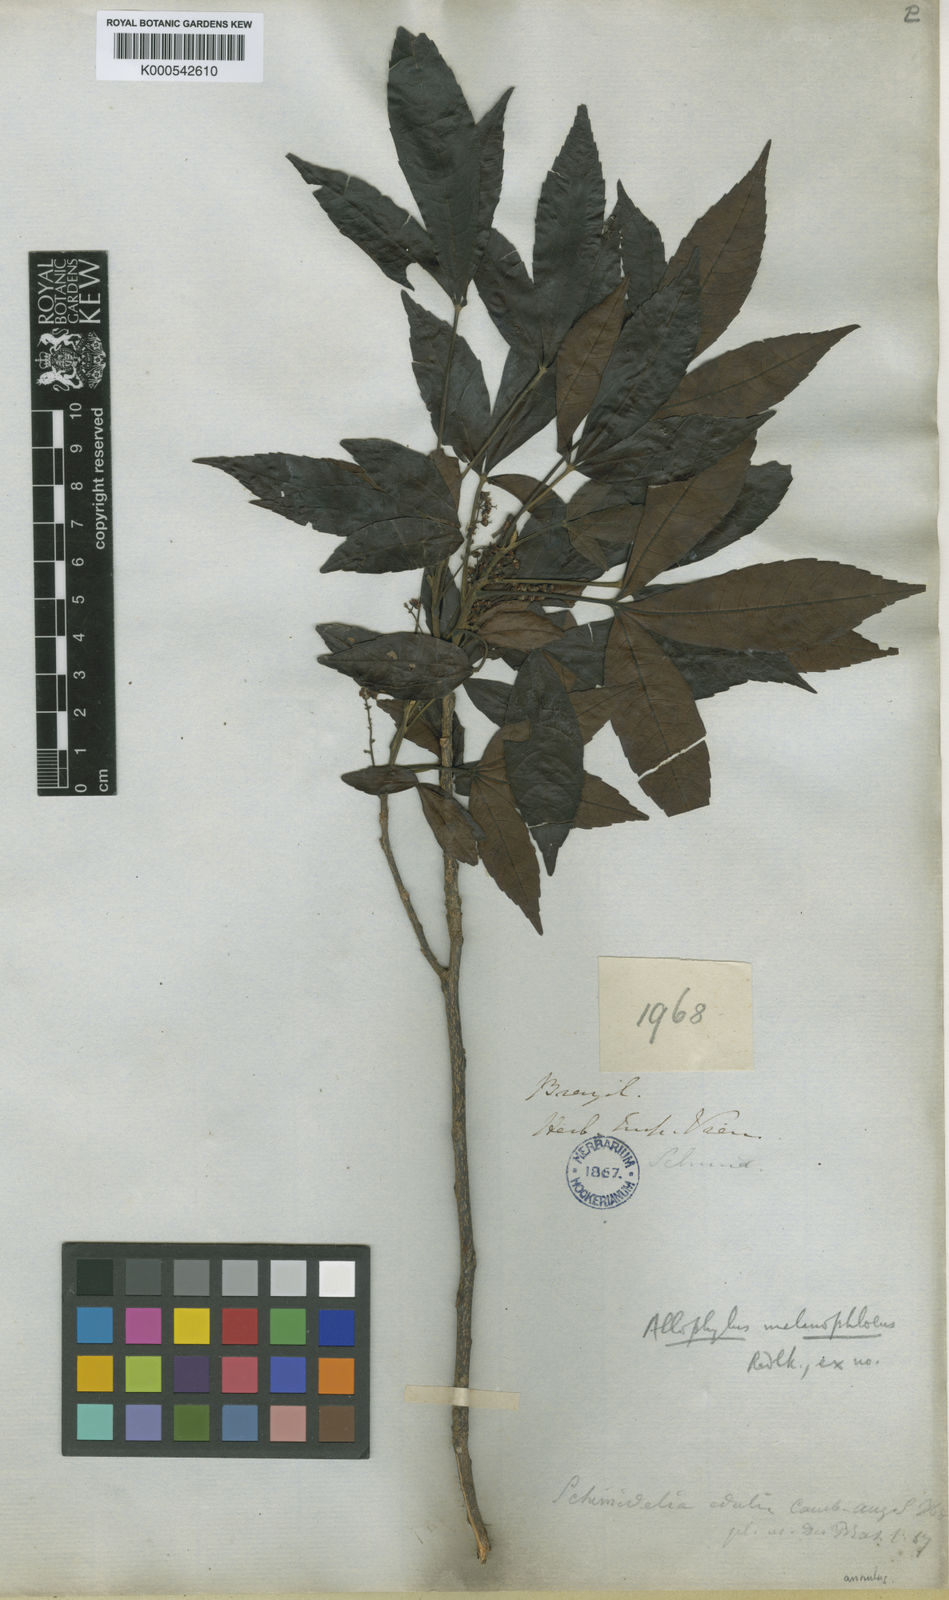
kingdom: Plantae
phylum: Tracheophyta
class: Magnoliopsida
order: Sapindales
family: Sapindaceae
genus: Allophylus
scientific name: Allophylus melanophloeus
